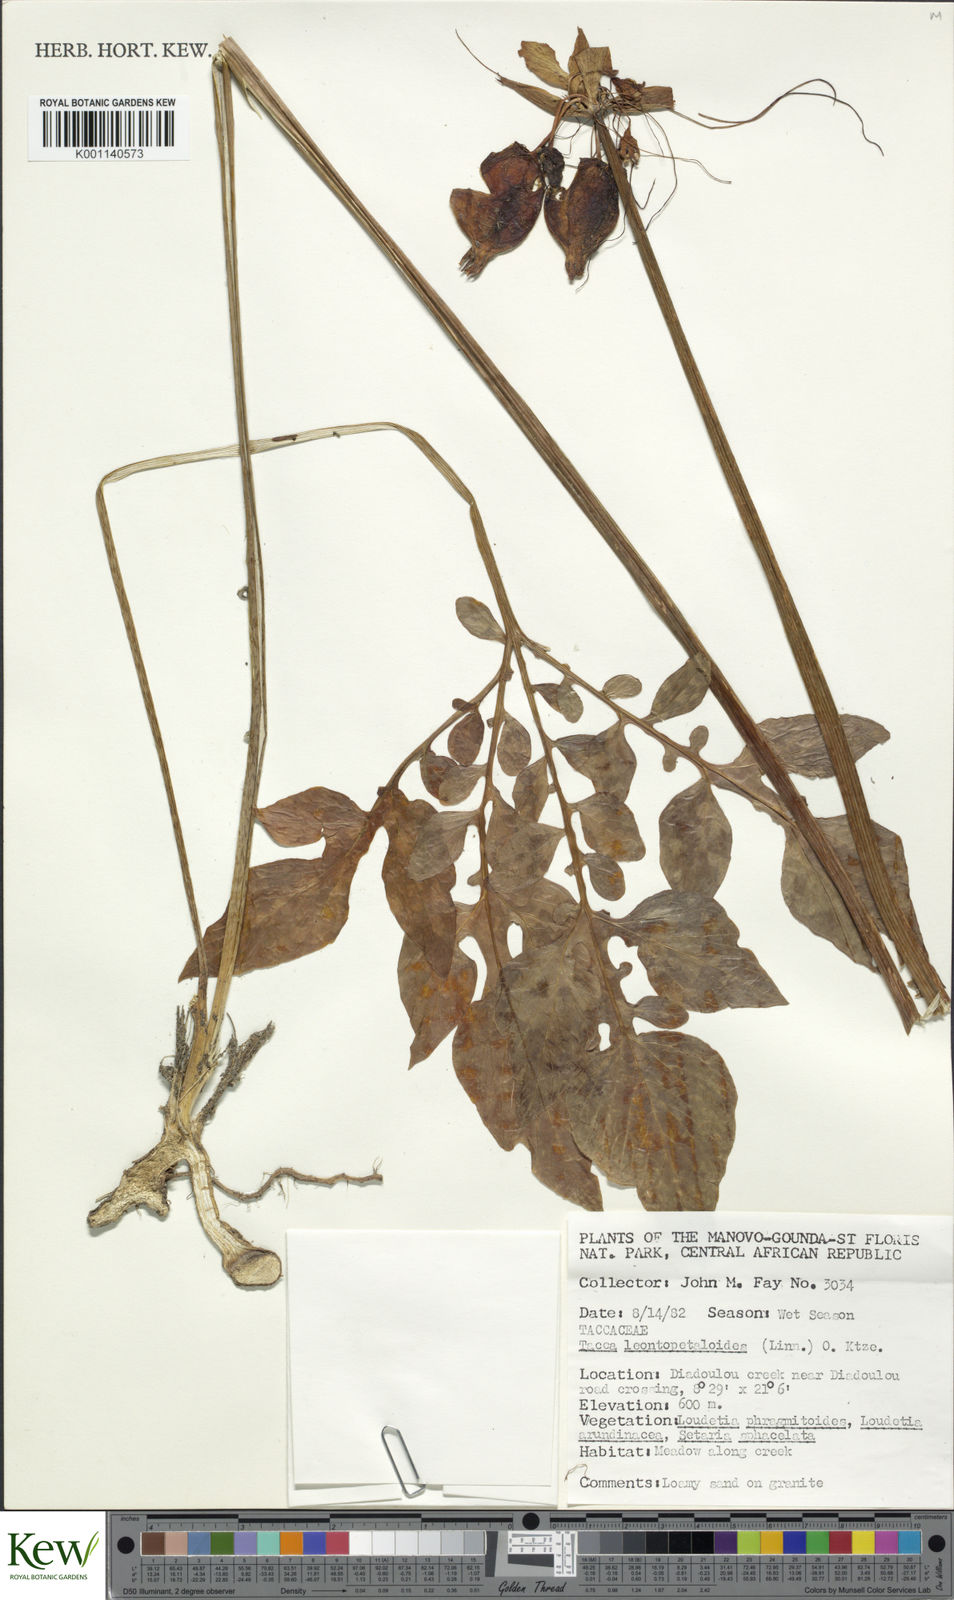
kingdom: Plantae
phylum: Tracheophyta
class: Liliopsida
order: Dioscoreales
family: Dioscoreaceae
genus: Tacca
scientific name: Tacca leontopetaloides
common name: Arrowroot
